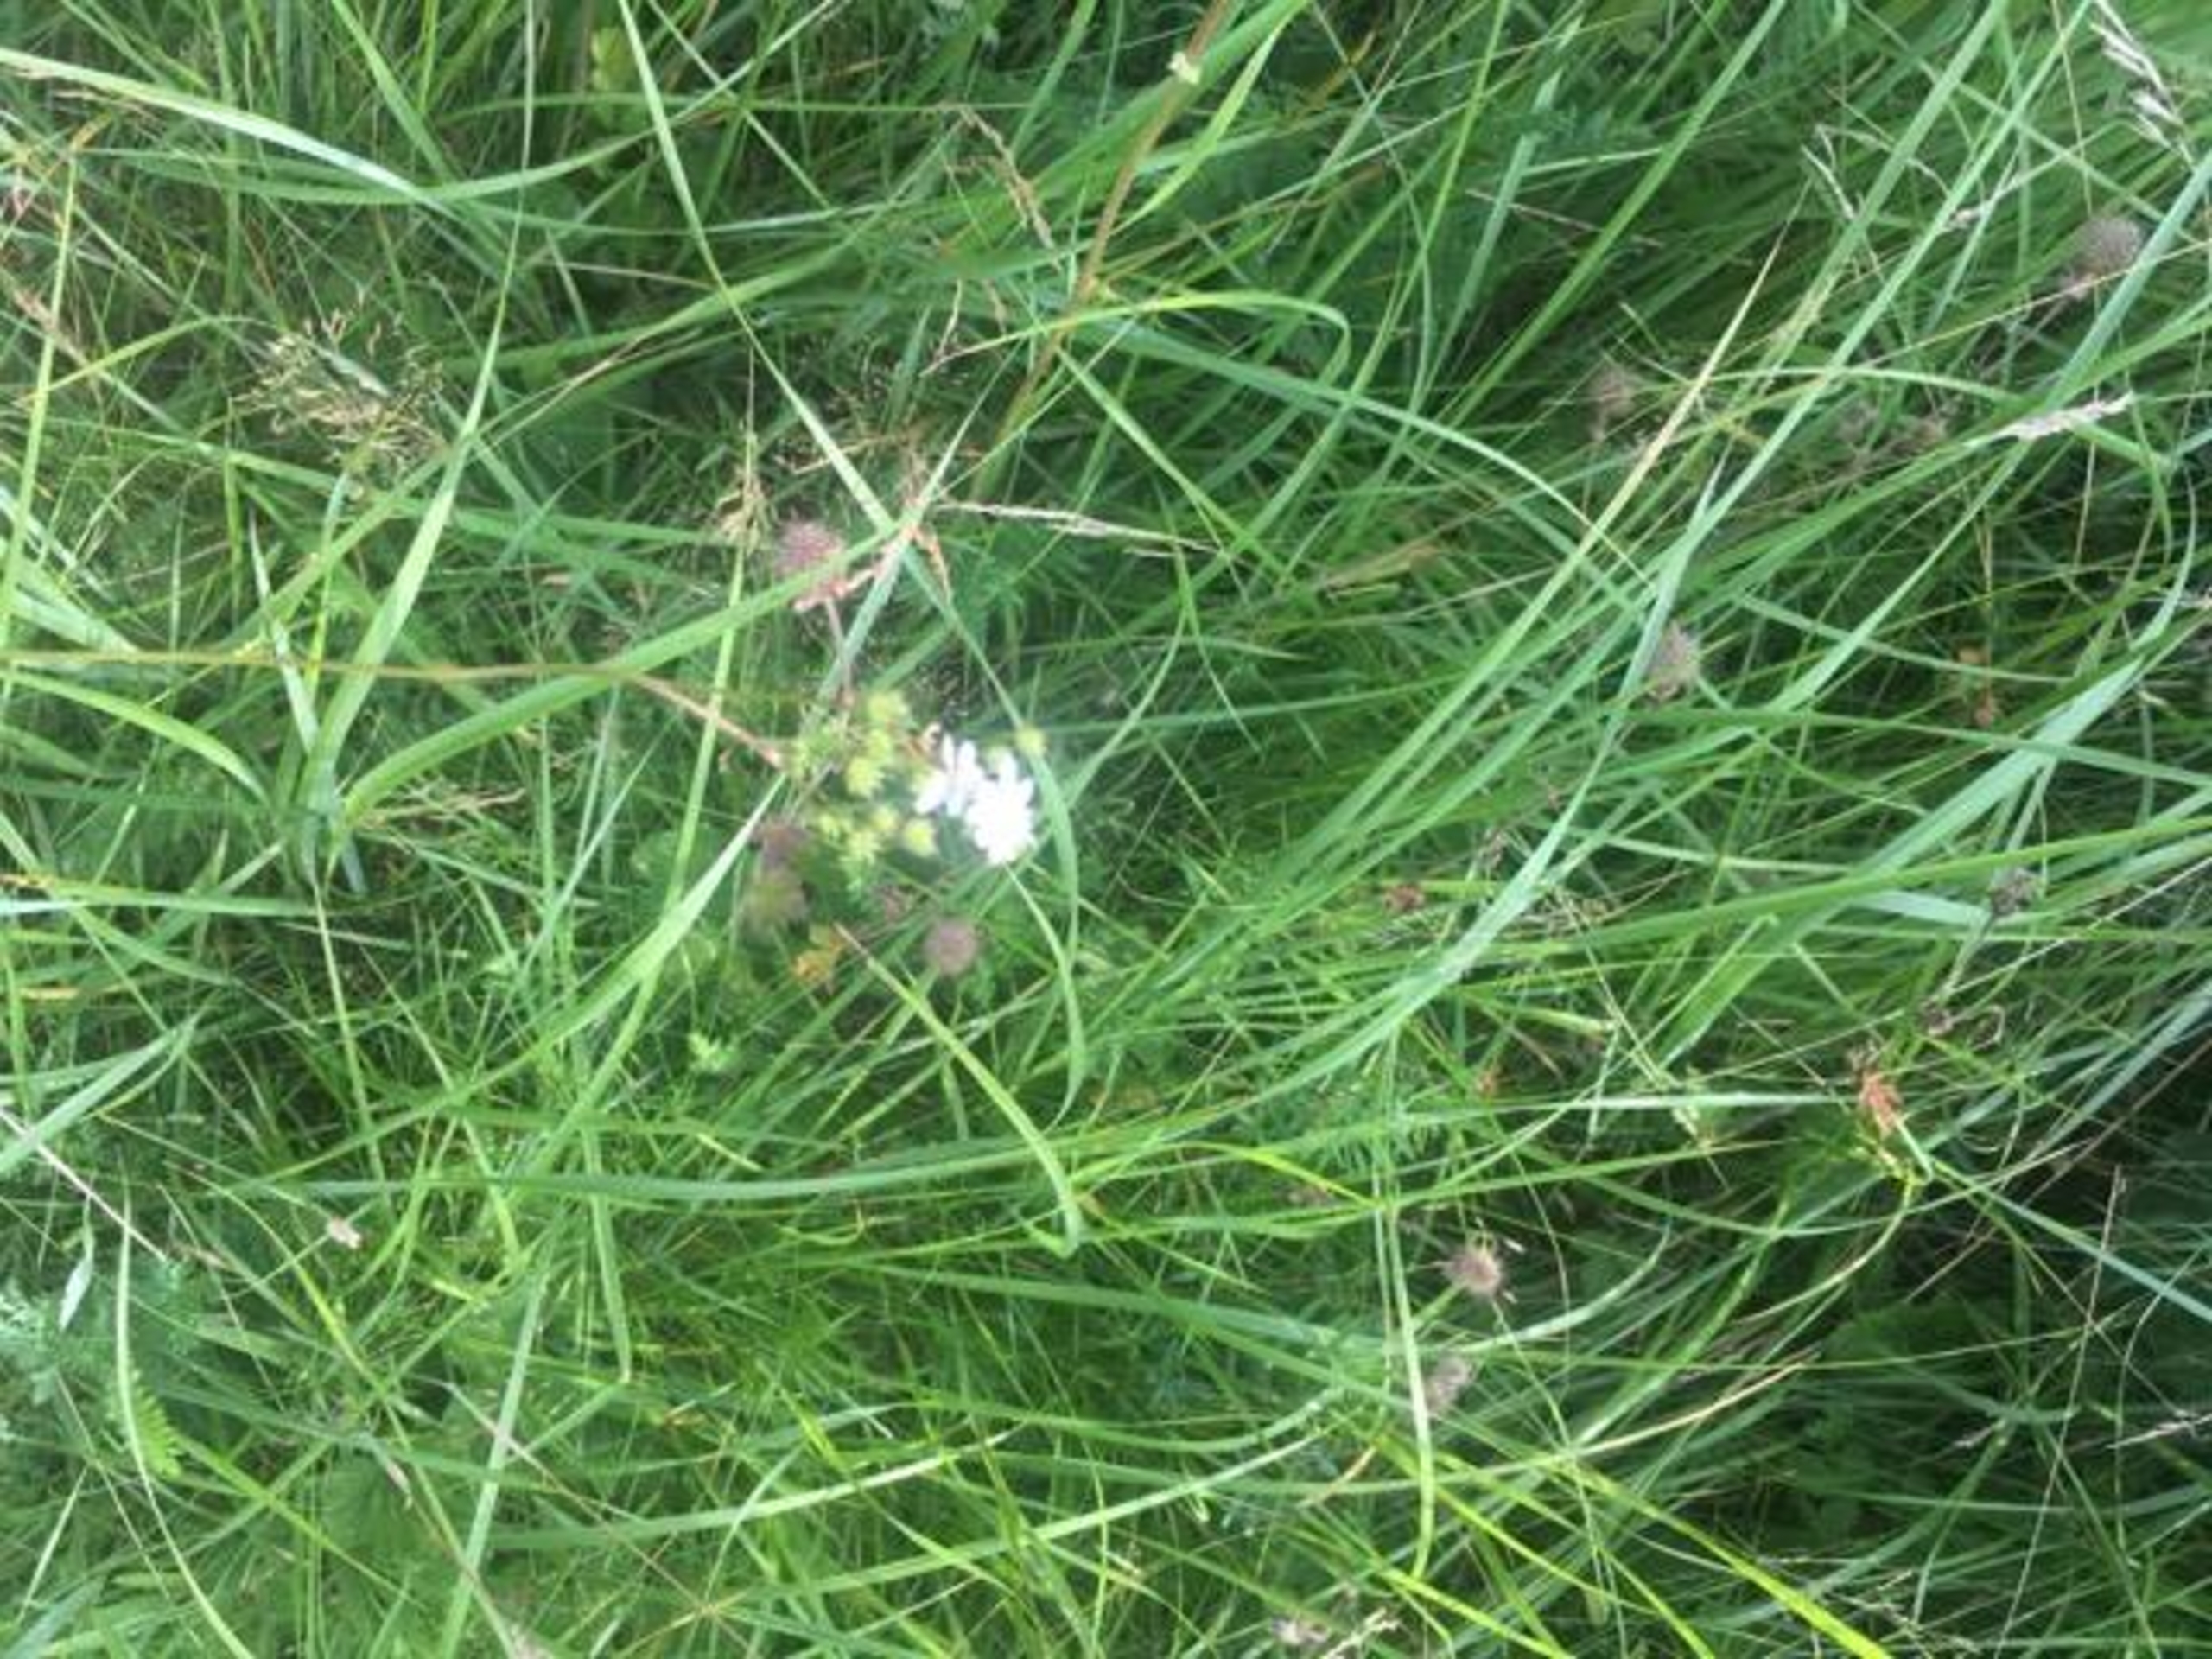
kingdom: Plantae
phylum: Tracheophyta
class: Magnoliopsida
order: Rosales
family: Rosaceae
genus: Filipendula
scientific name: Filipendula vulgaris
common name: Knoldet mjødurt
